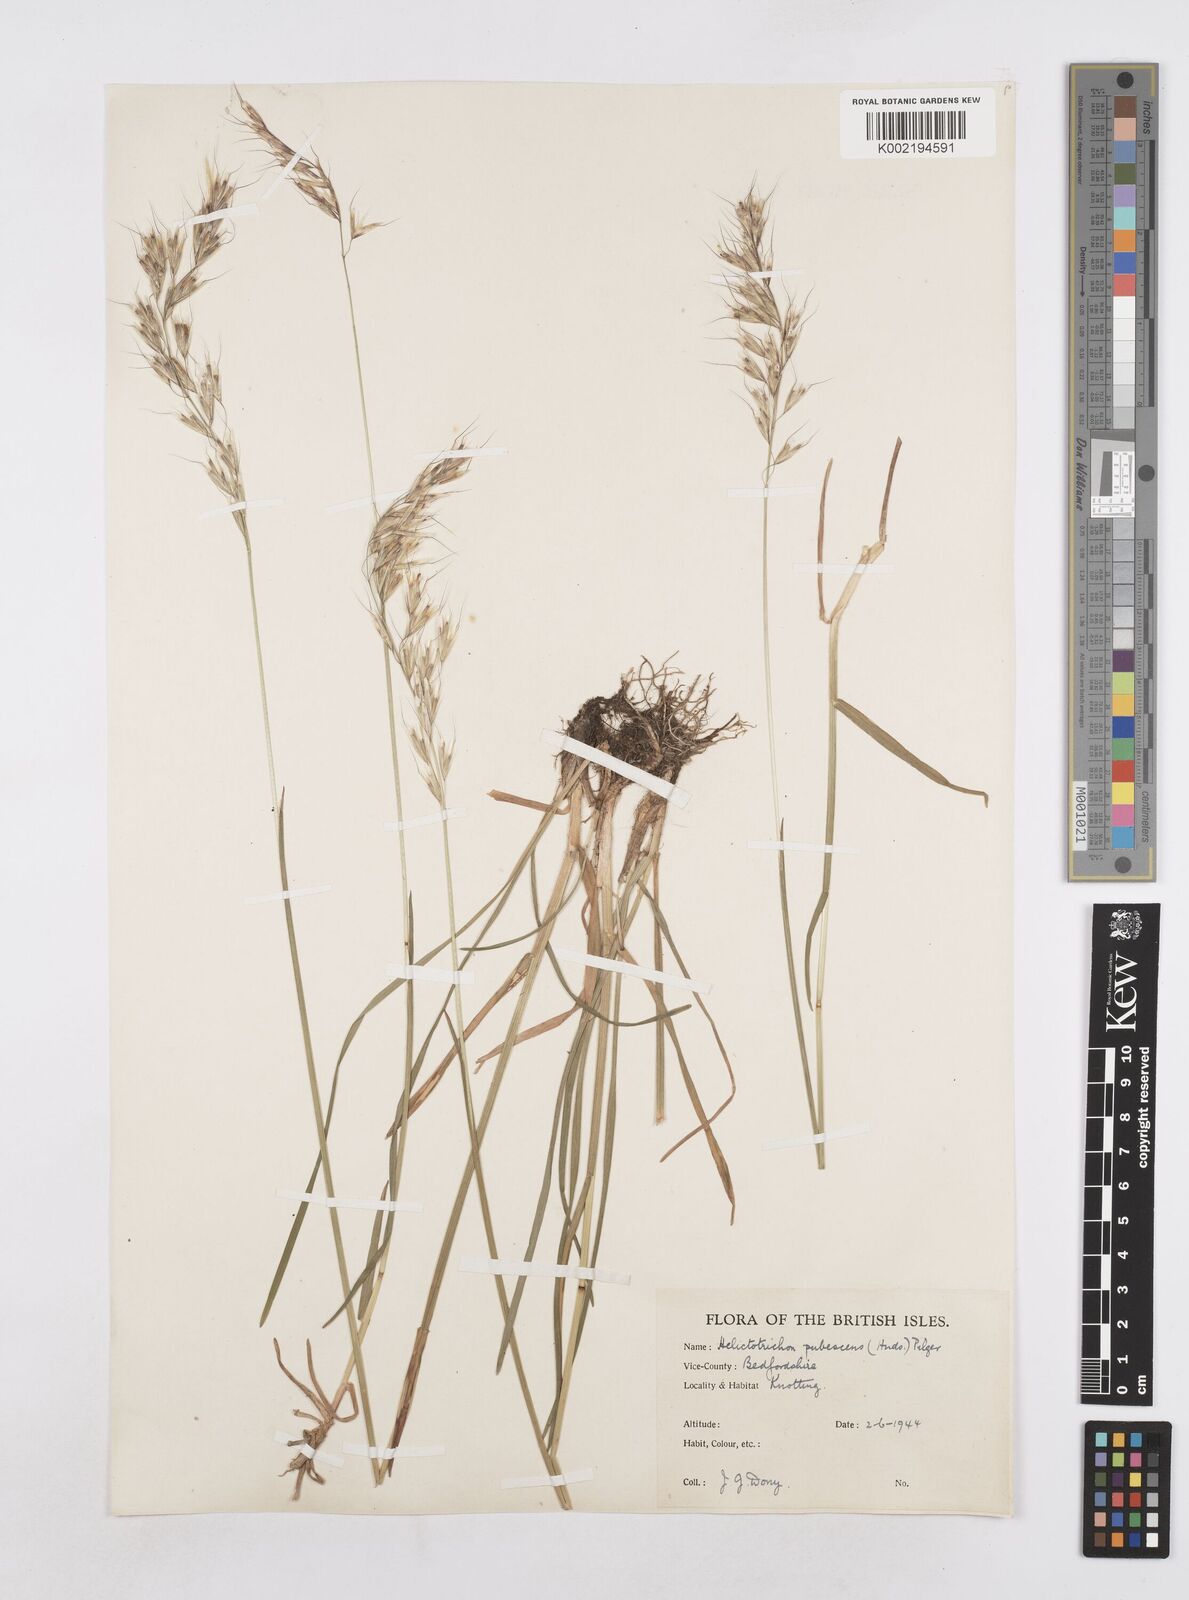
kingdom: Plantae
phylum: Tracheophyta
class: Liliopsida
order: Poales
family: Poaceae
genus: Avenula
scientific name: Avenula pubescens
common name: Downy alpine oatgrass
